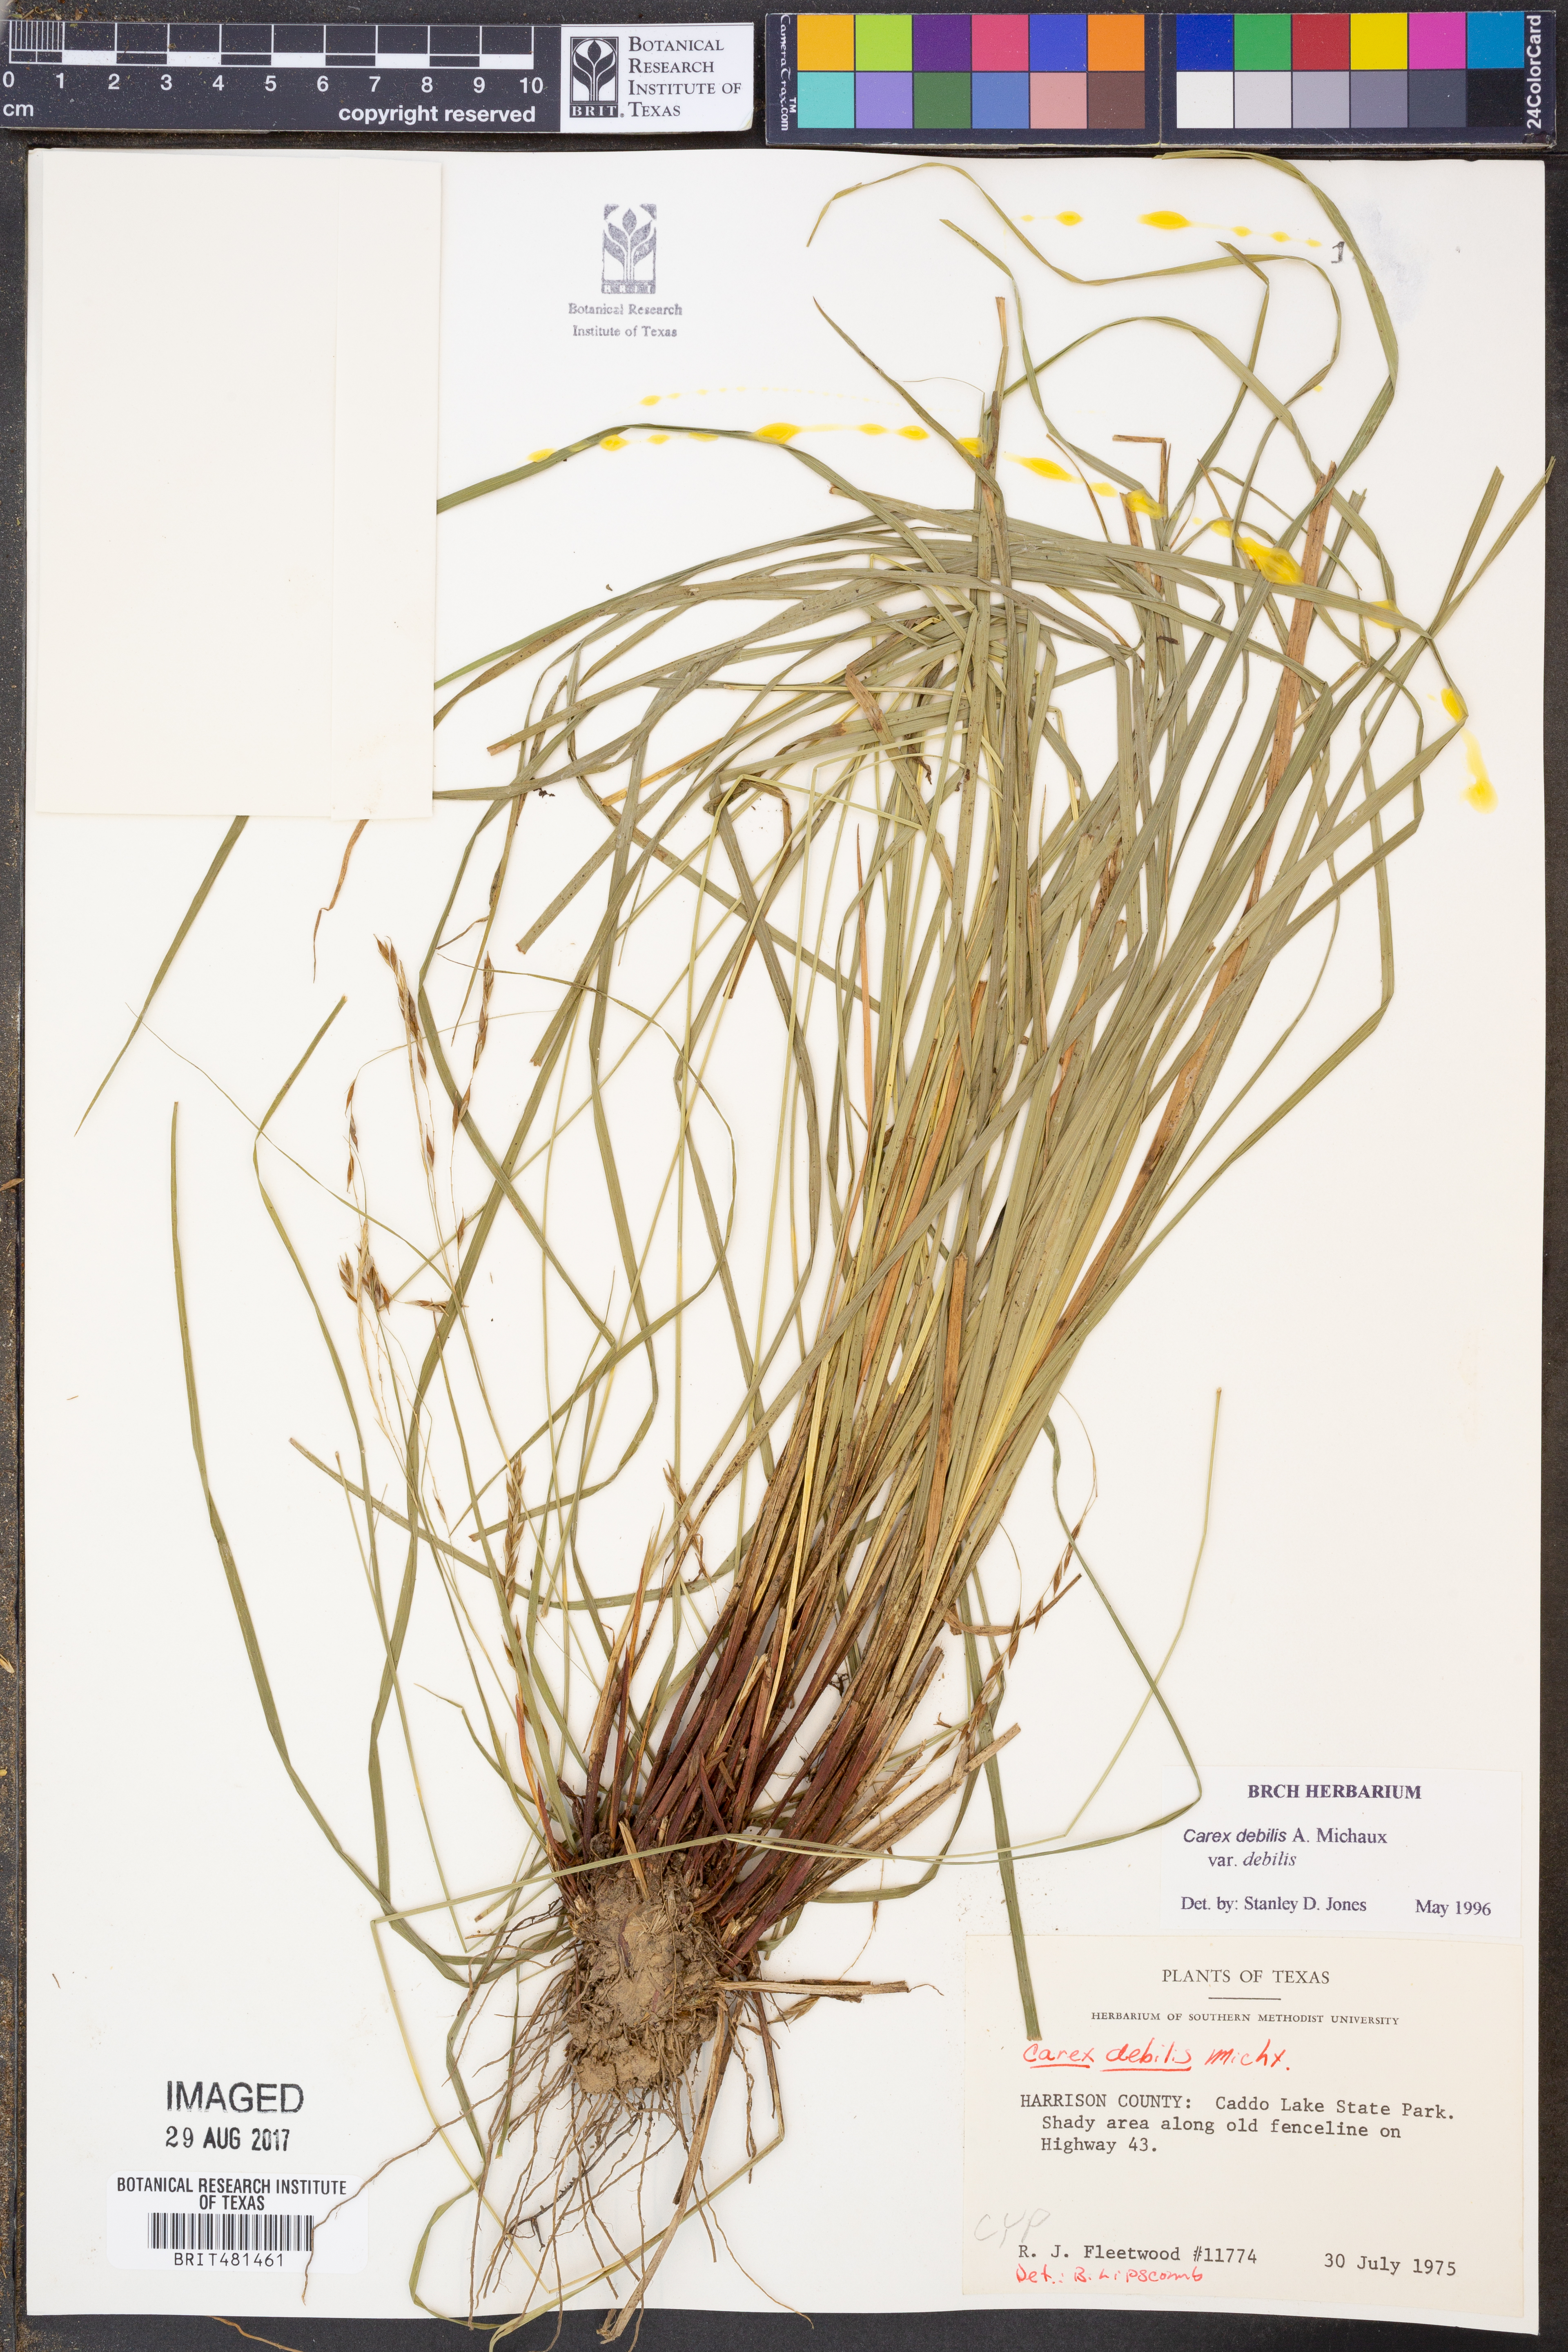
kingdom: Plantae
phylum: Tracheophyta
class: Liliopsida
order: Poales
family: Cyperaceae
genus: Carex
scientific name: Carex debilis
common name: White-edge sedge
